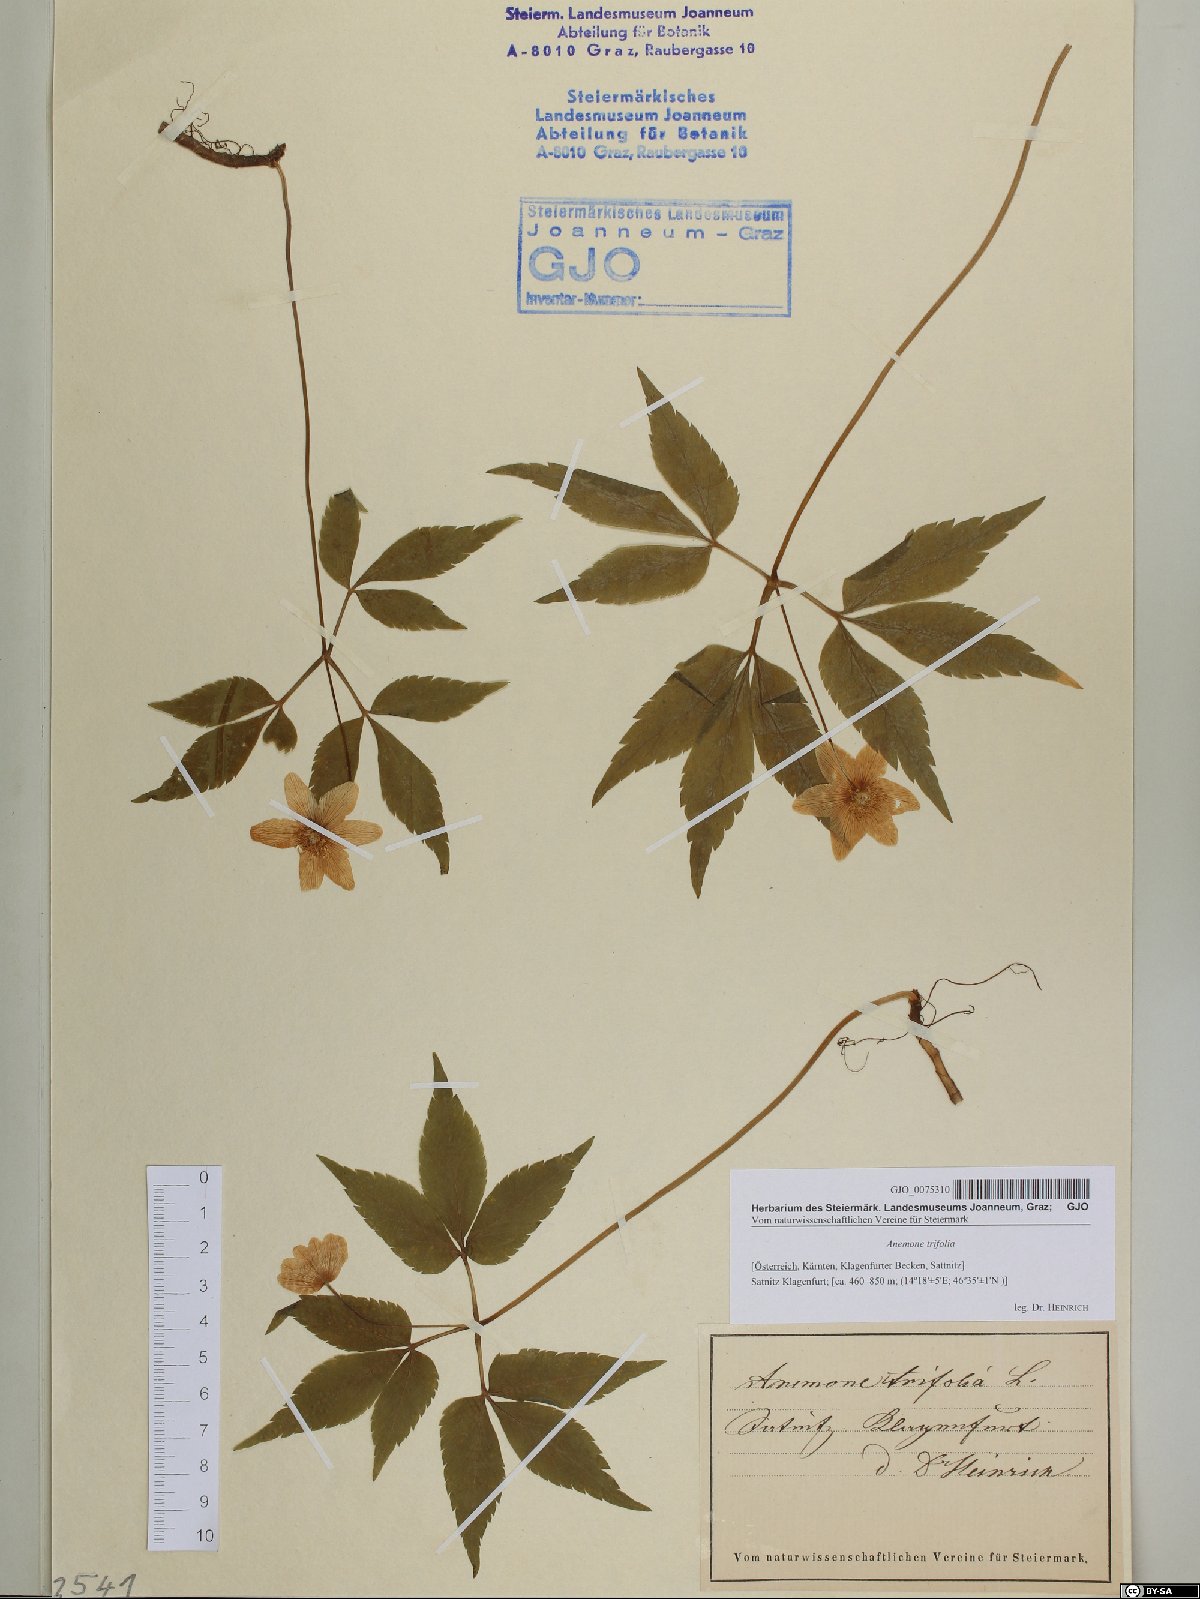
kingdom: Plantae
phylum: Tracheophyta
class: Magnoliopsida
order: Ranunculales
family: Ranunculaceae
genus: Anemone
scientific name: Anemone trifolia
